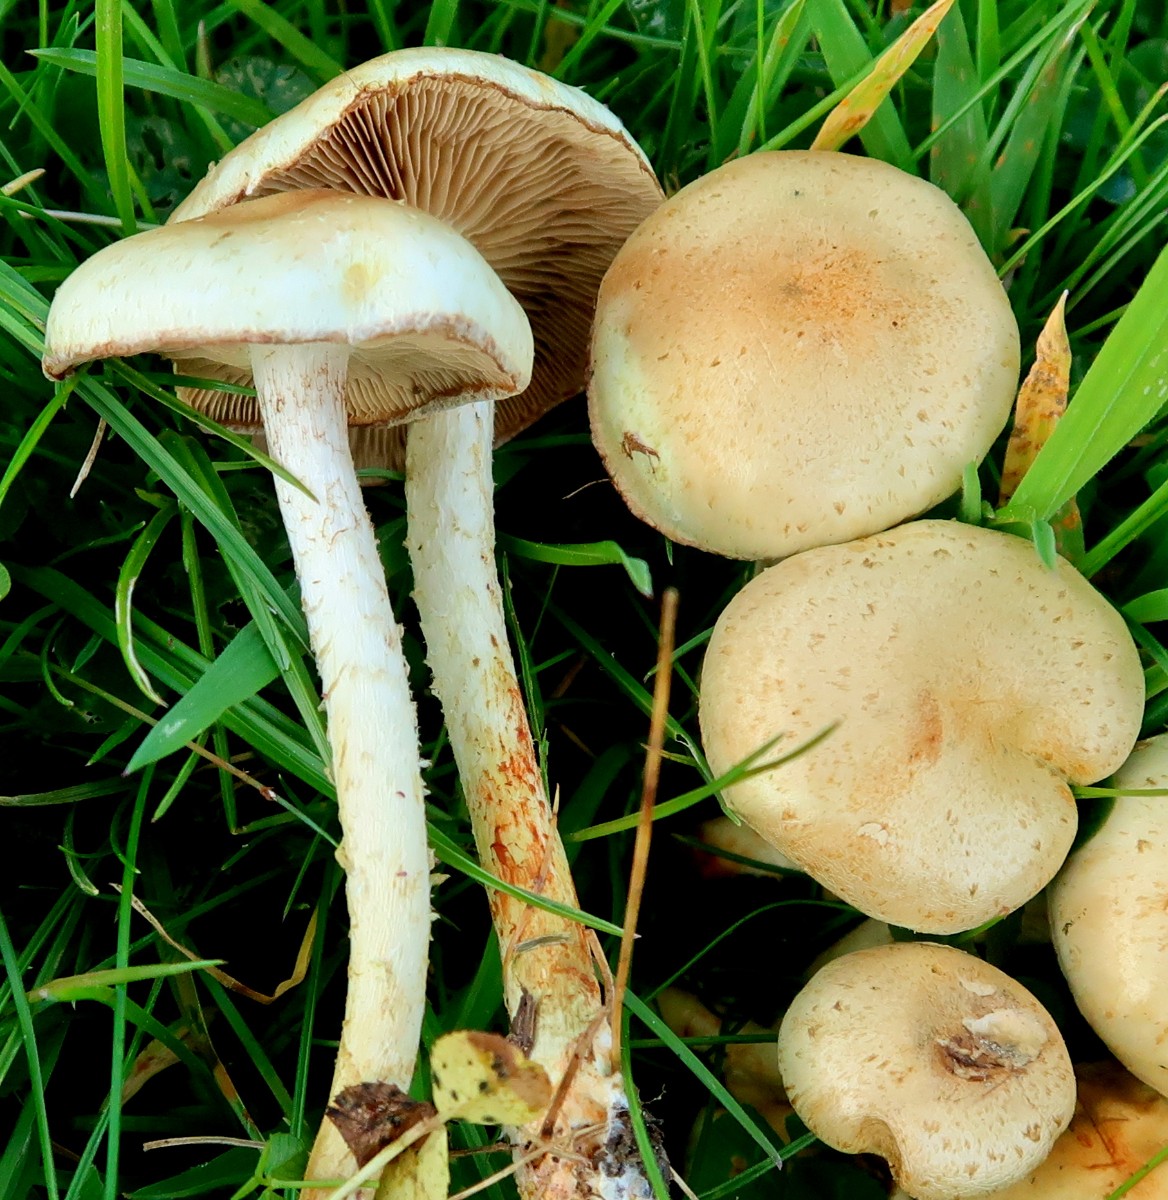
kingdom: Fungi
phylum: Basidiomycota
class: Agaricomycetes
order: Agaricales
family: Strophariaceae
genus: Pholiota
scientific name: Pholiota gummosa
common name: grøngul skælhat
